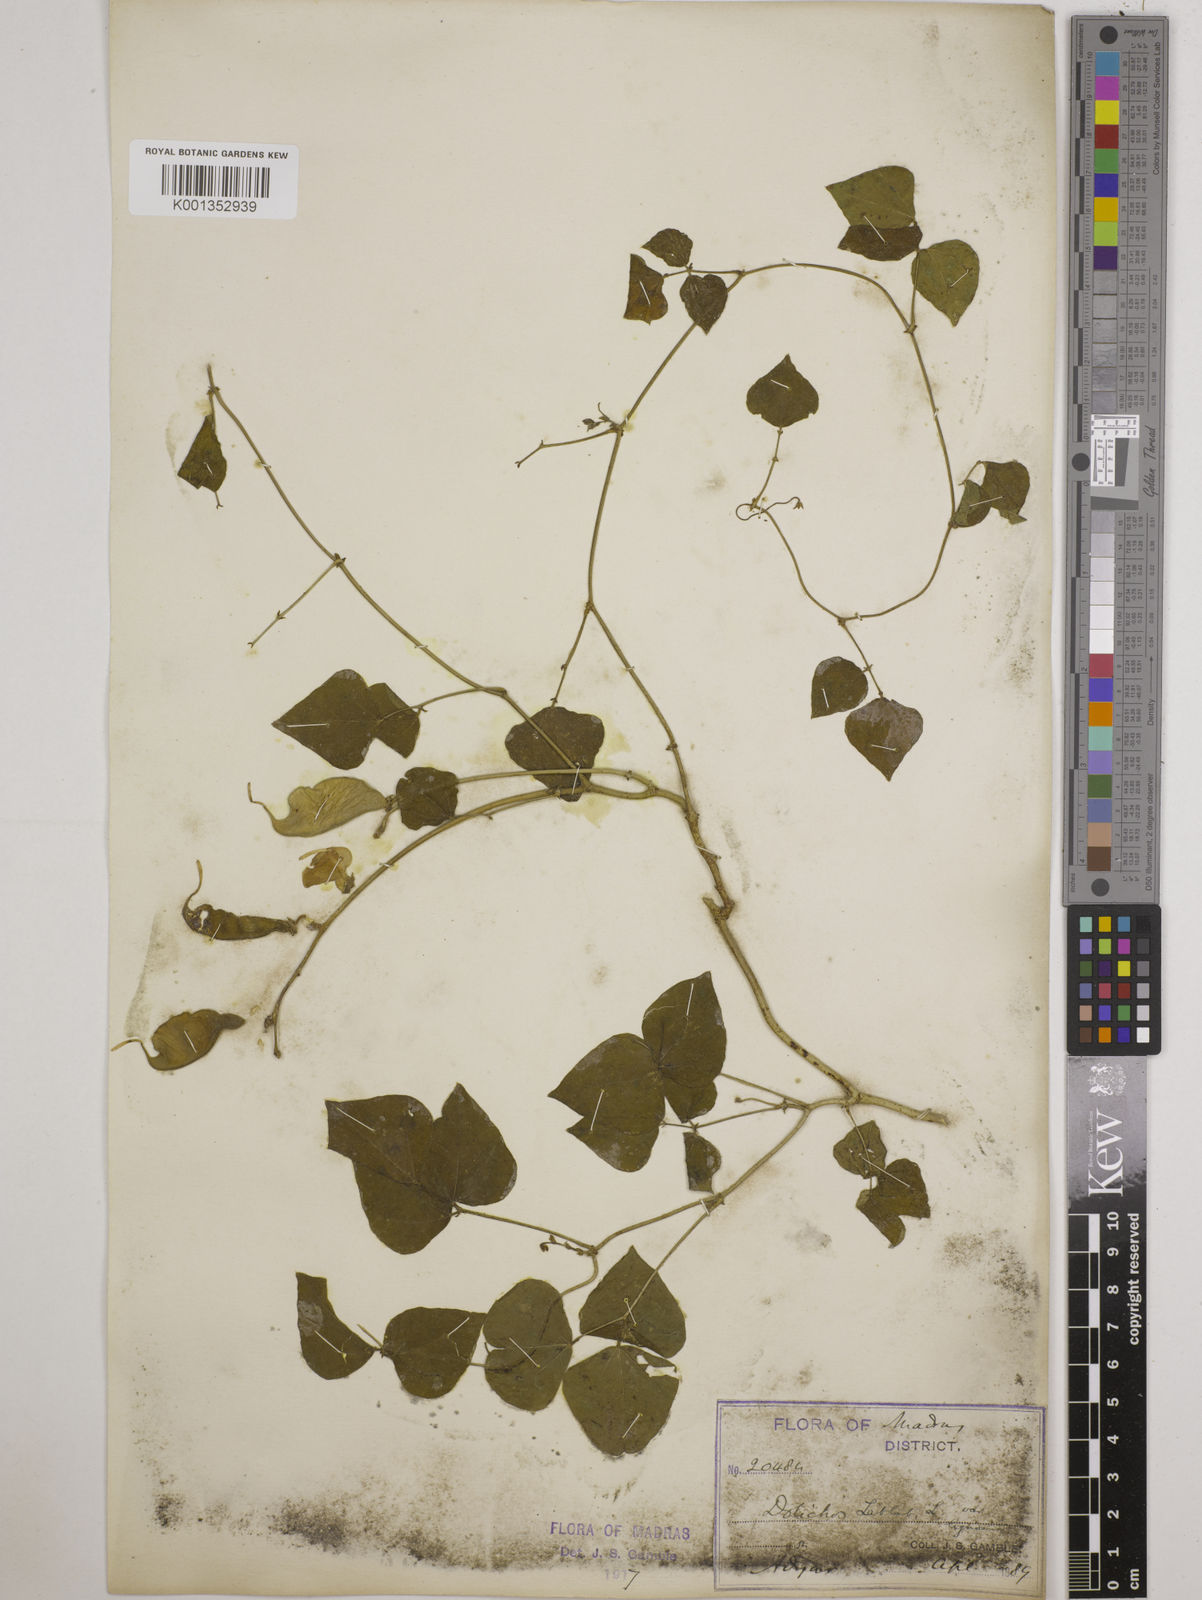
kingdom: Plantae
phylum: Tracheophyta
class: Magnoliopsida
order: Fabales
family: Fabaceae
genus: Lablab
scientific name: Lablab purpureus
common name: Lablab-bean
